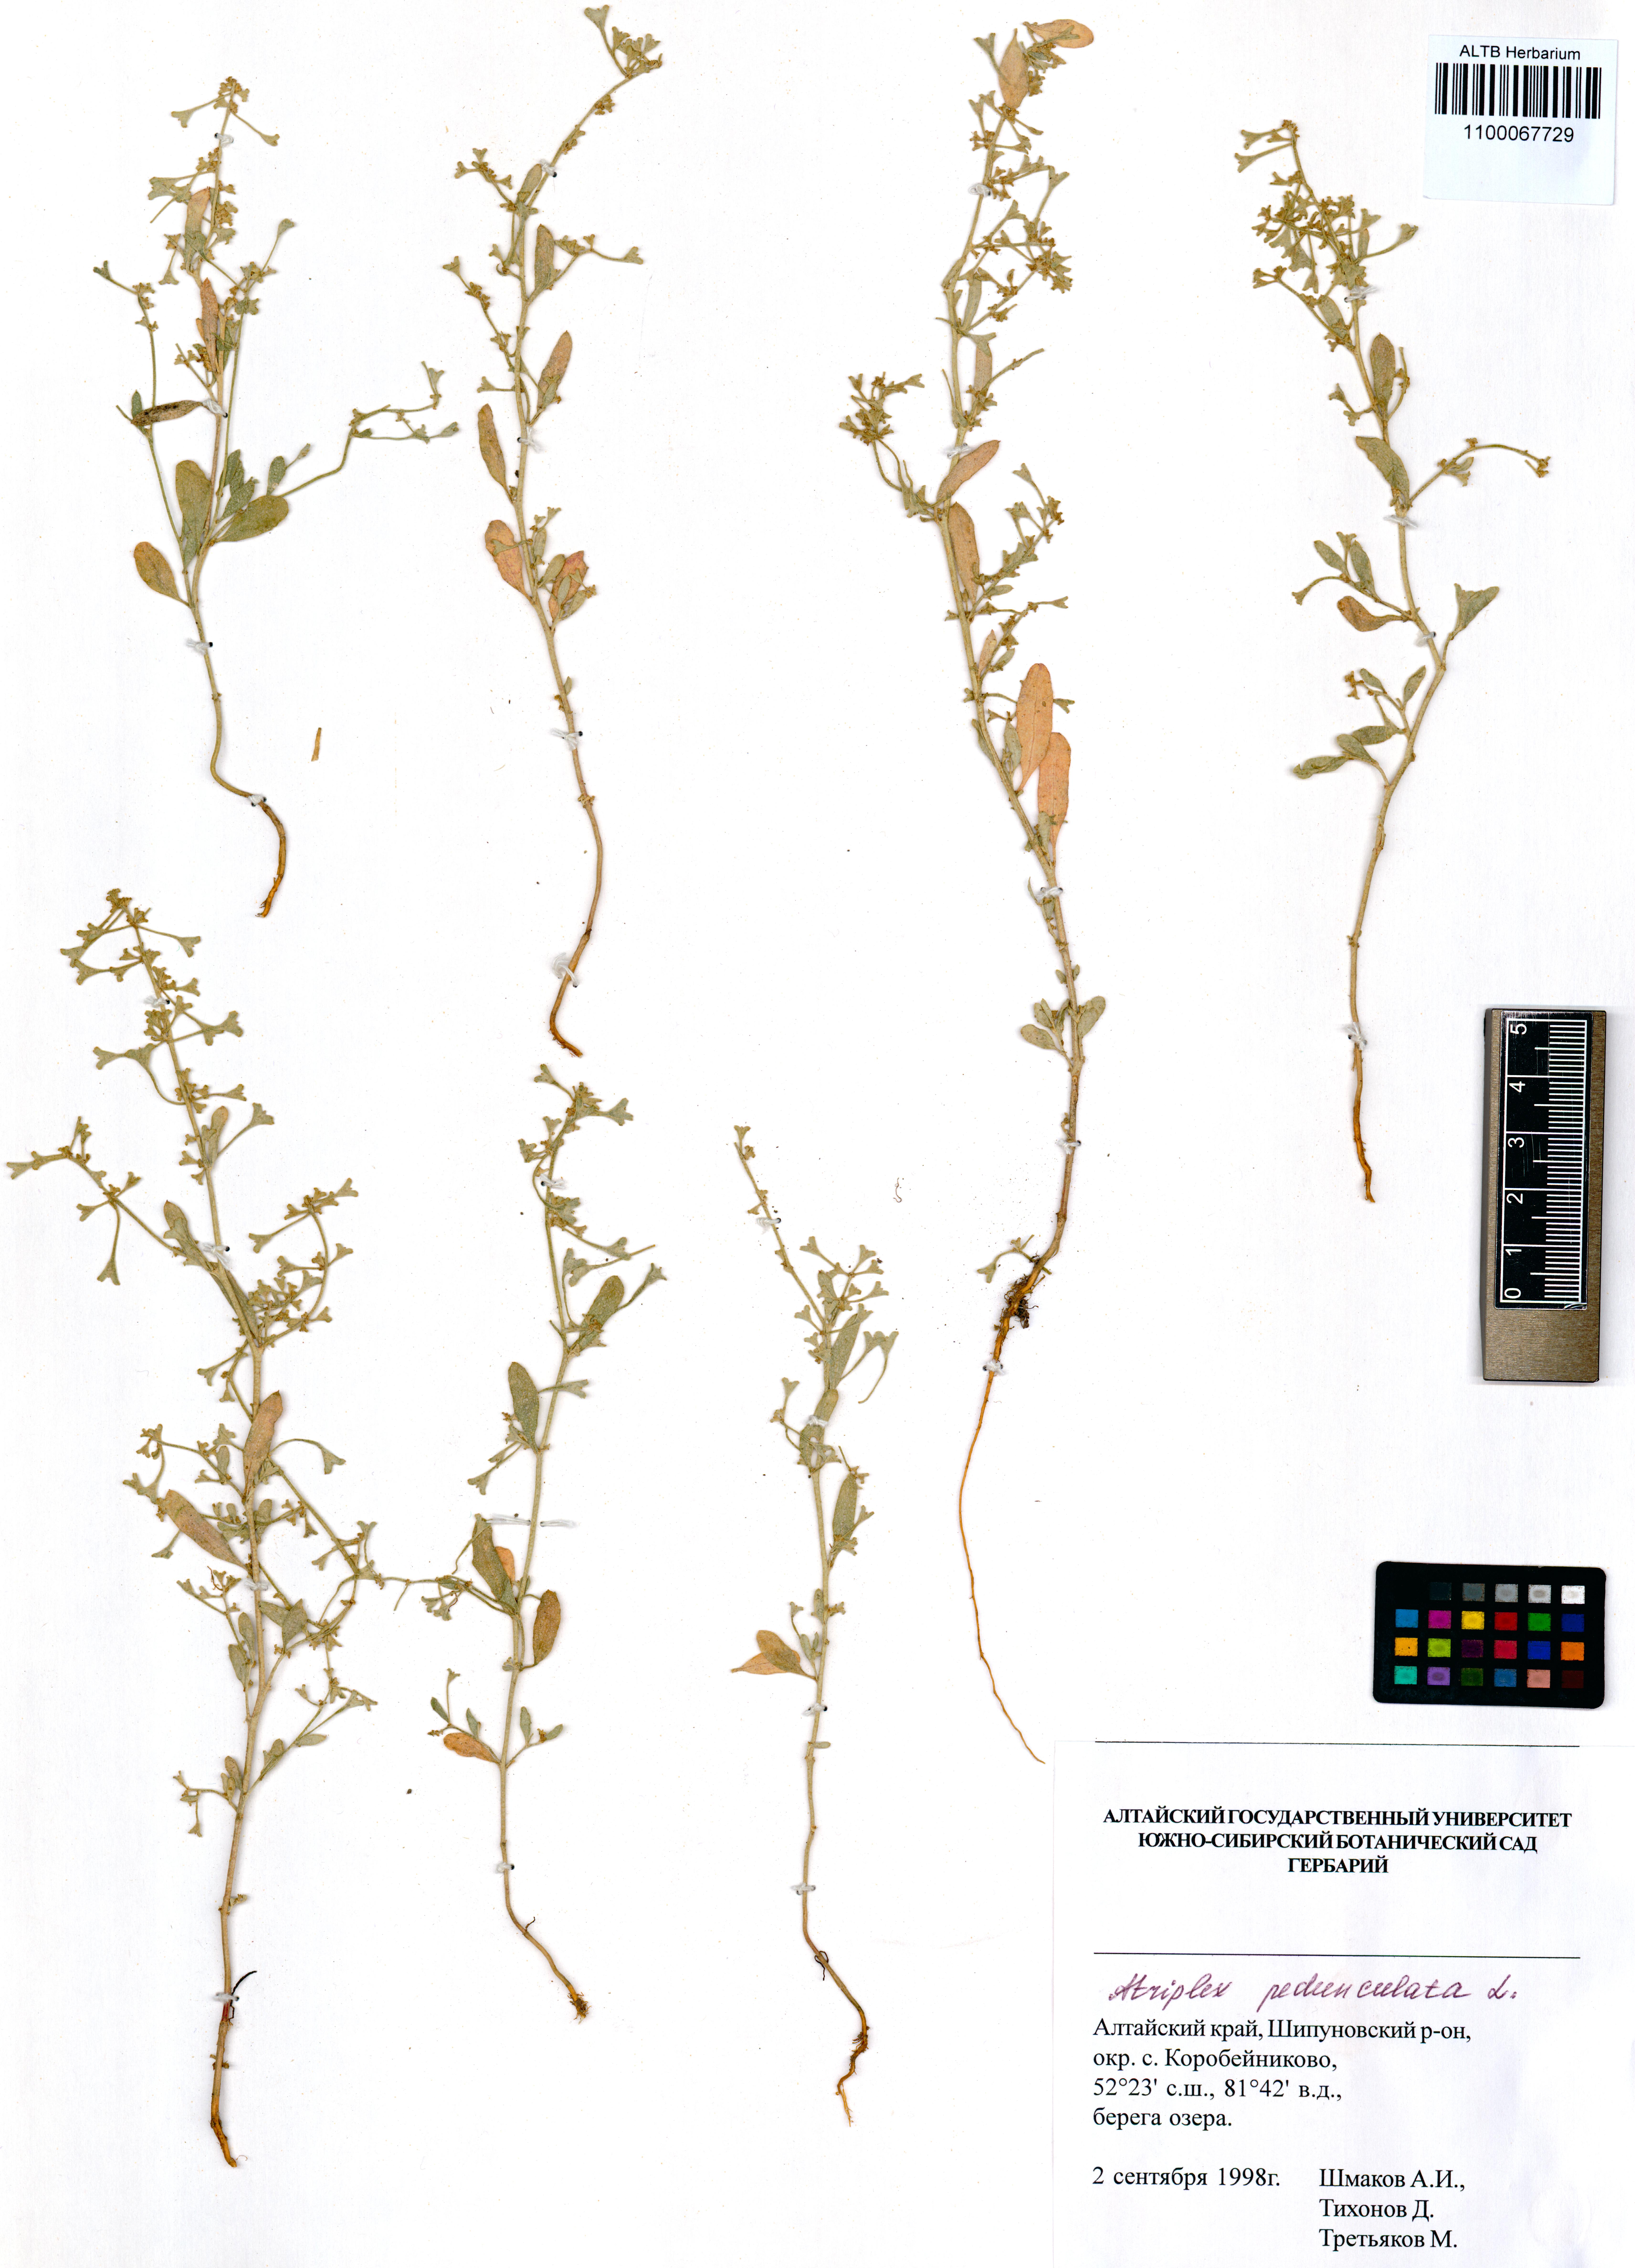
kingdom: Plantae
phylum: Tracheophyta
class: Magnoliopsida
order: Caryophyllales
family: Amaranthaceae
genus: Halimione
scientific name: Halimione pedunculata
